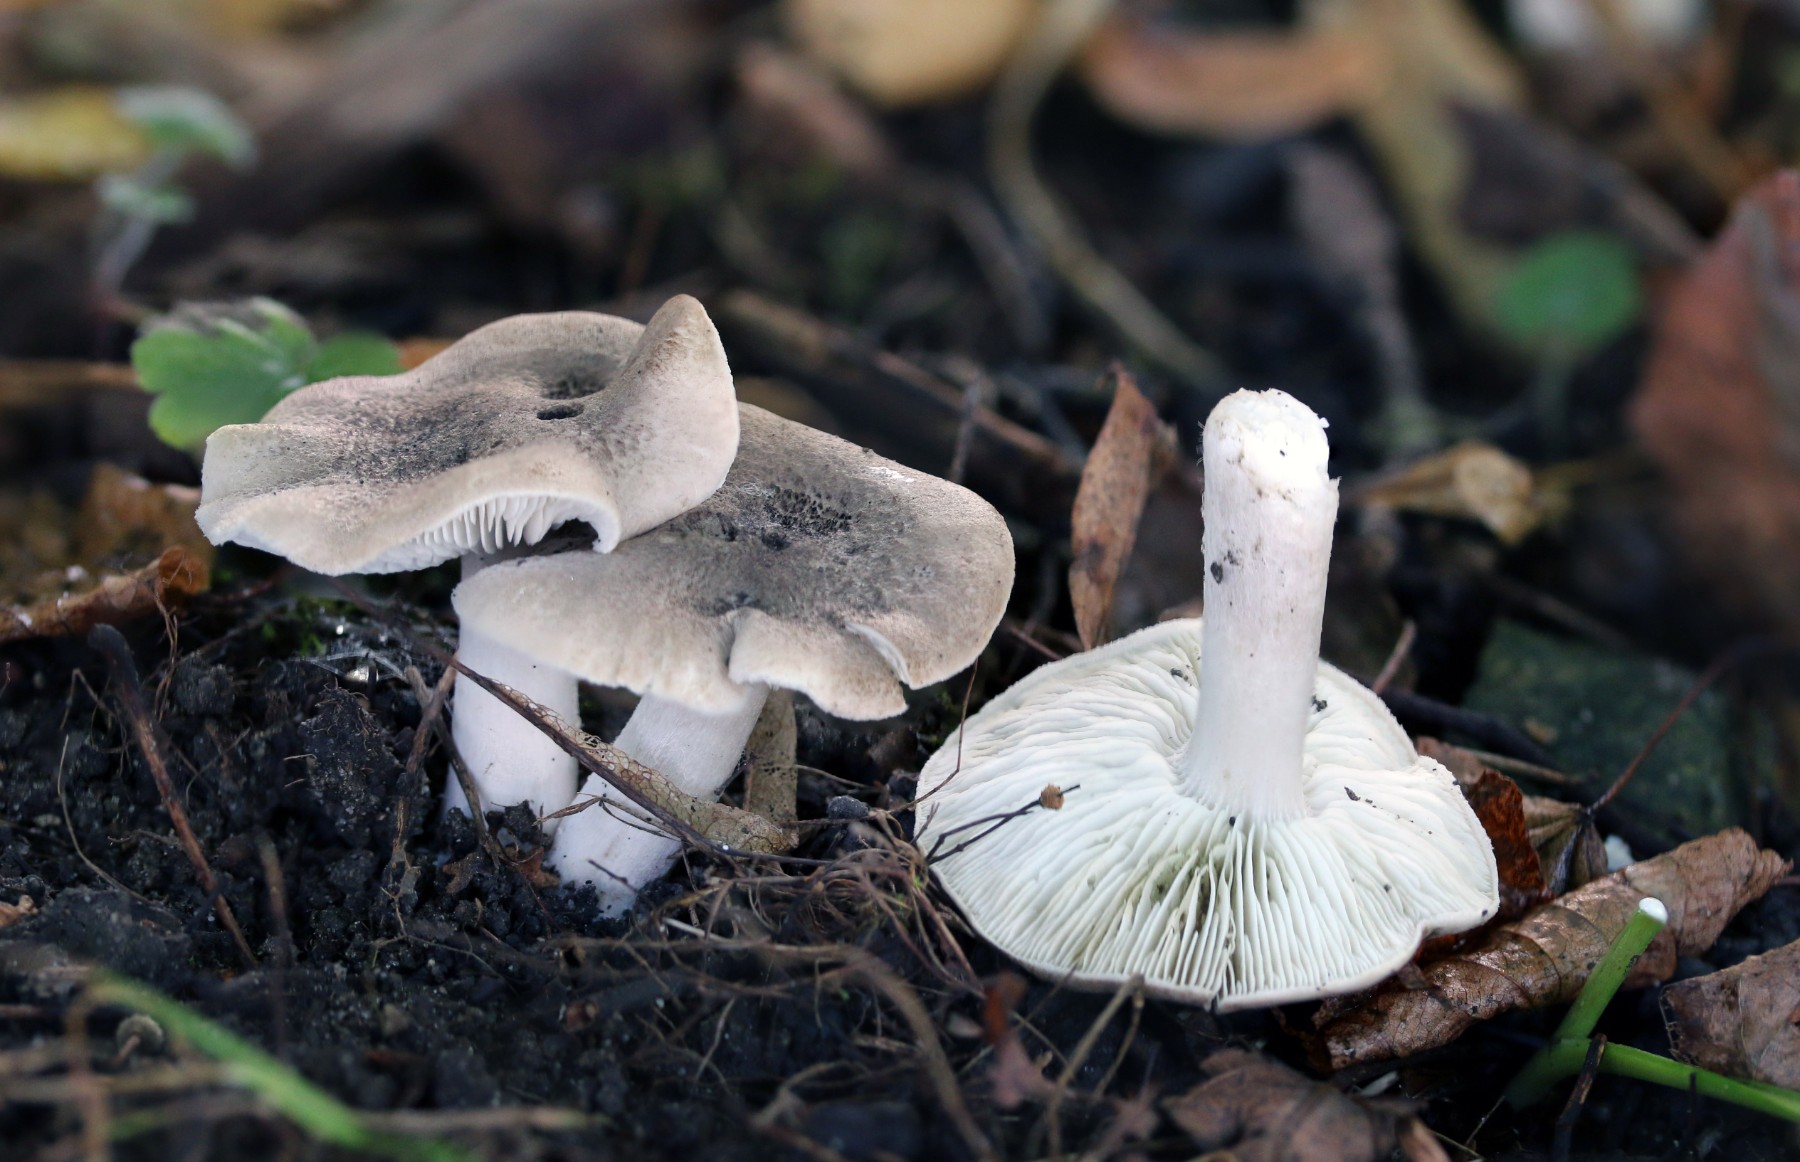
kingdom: Fungi
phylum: Basidiomycota
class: Agaricomycetes
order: Agaricales
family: Tricholomataceae
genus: Tricholoma
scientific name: Tricholoma scalpturatum
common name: gulplettet ridderhat
